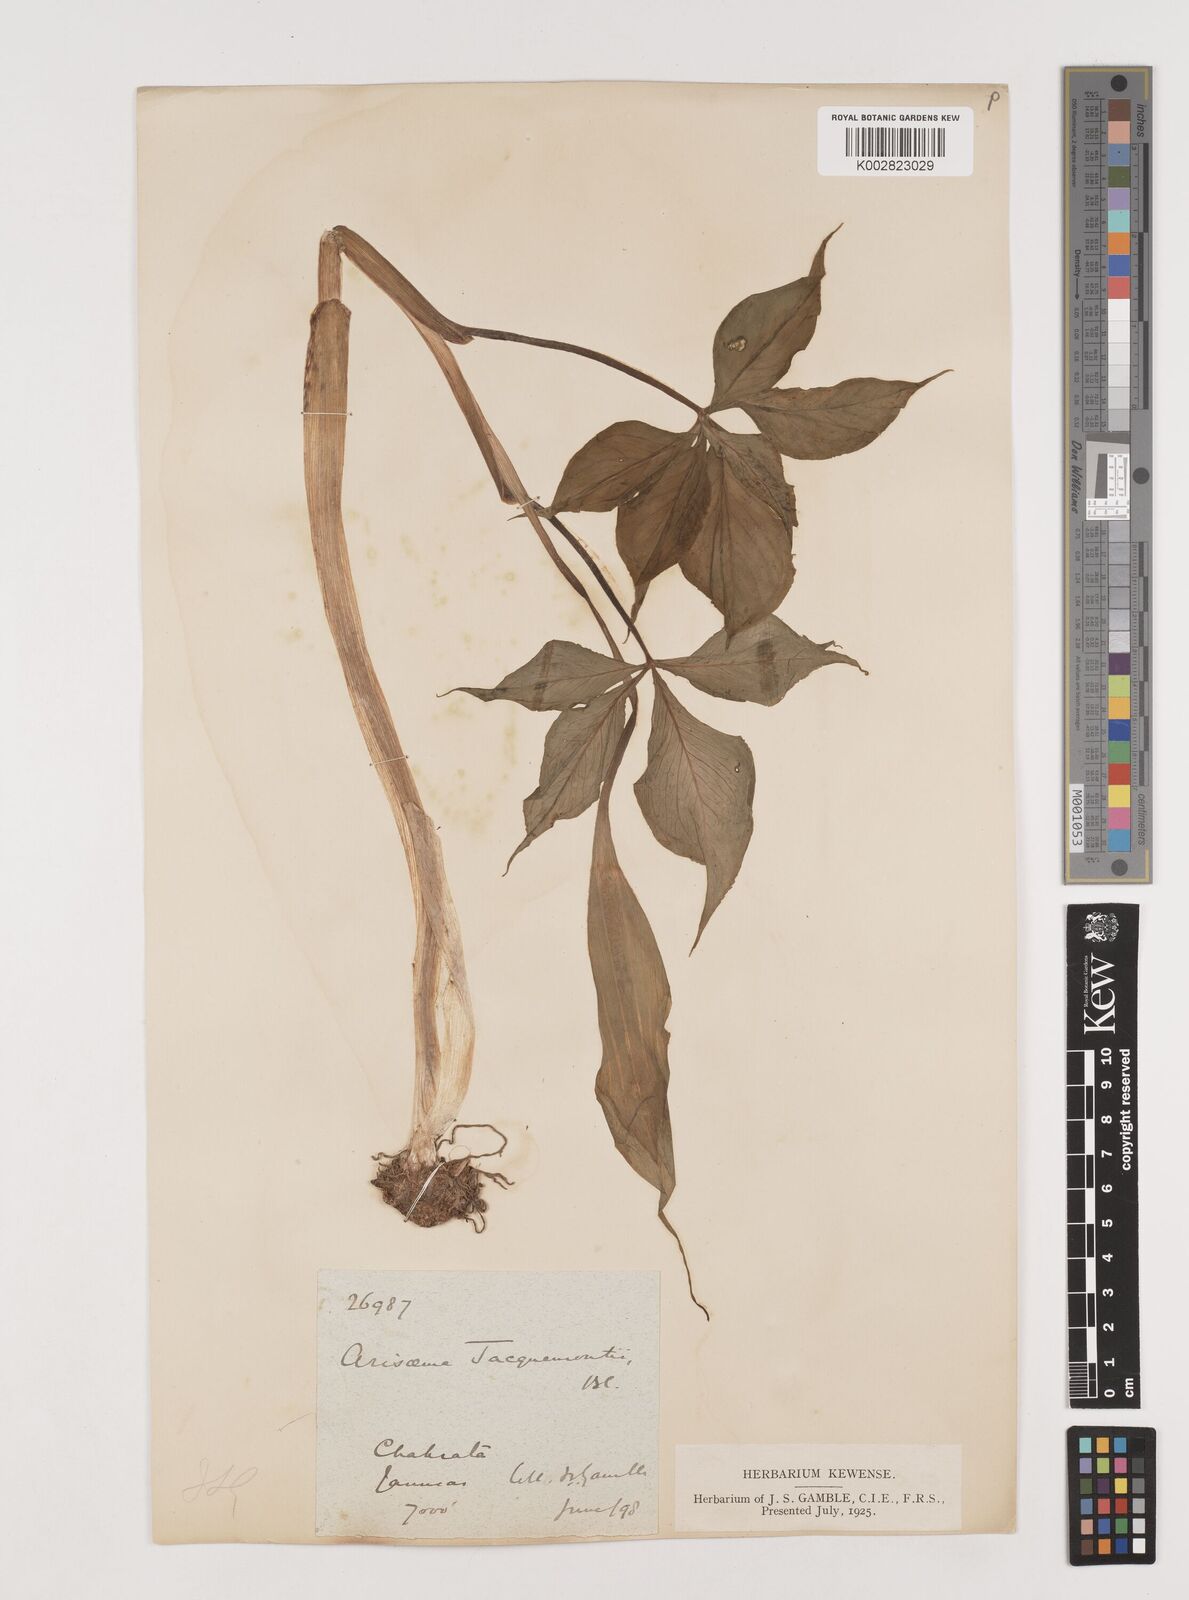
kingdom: Plantae
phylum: Tracheophyta
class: Liliopsida
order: Alismatales
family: Araceae
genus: Arisaema
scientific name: Arisaema jacquemontii
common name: Jacquemont's cobra-lily
